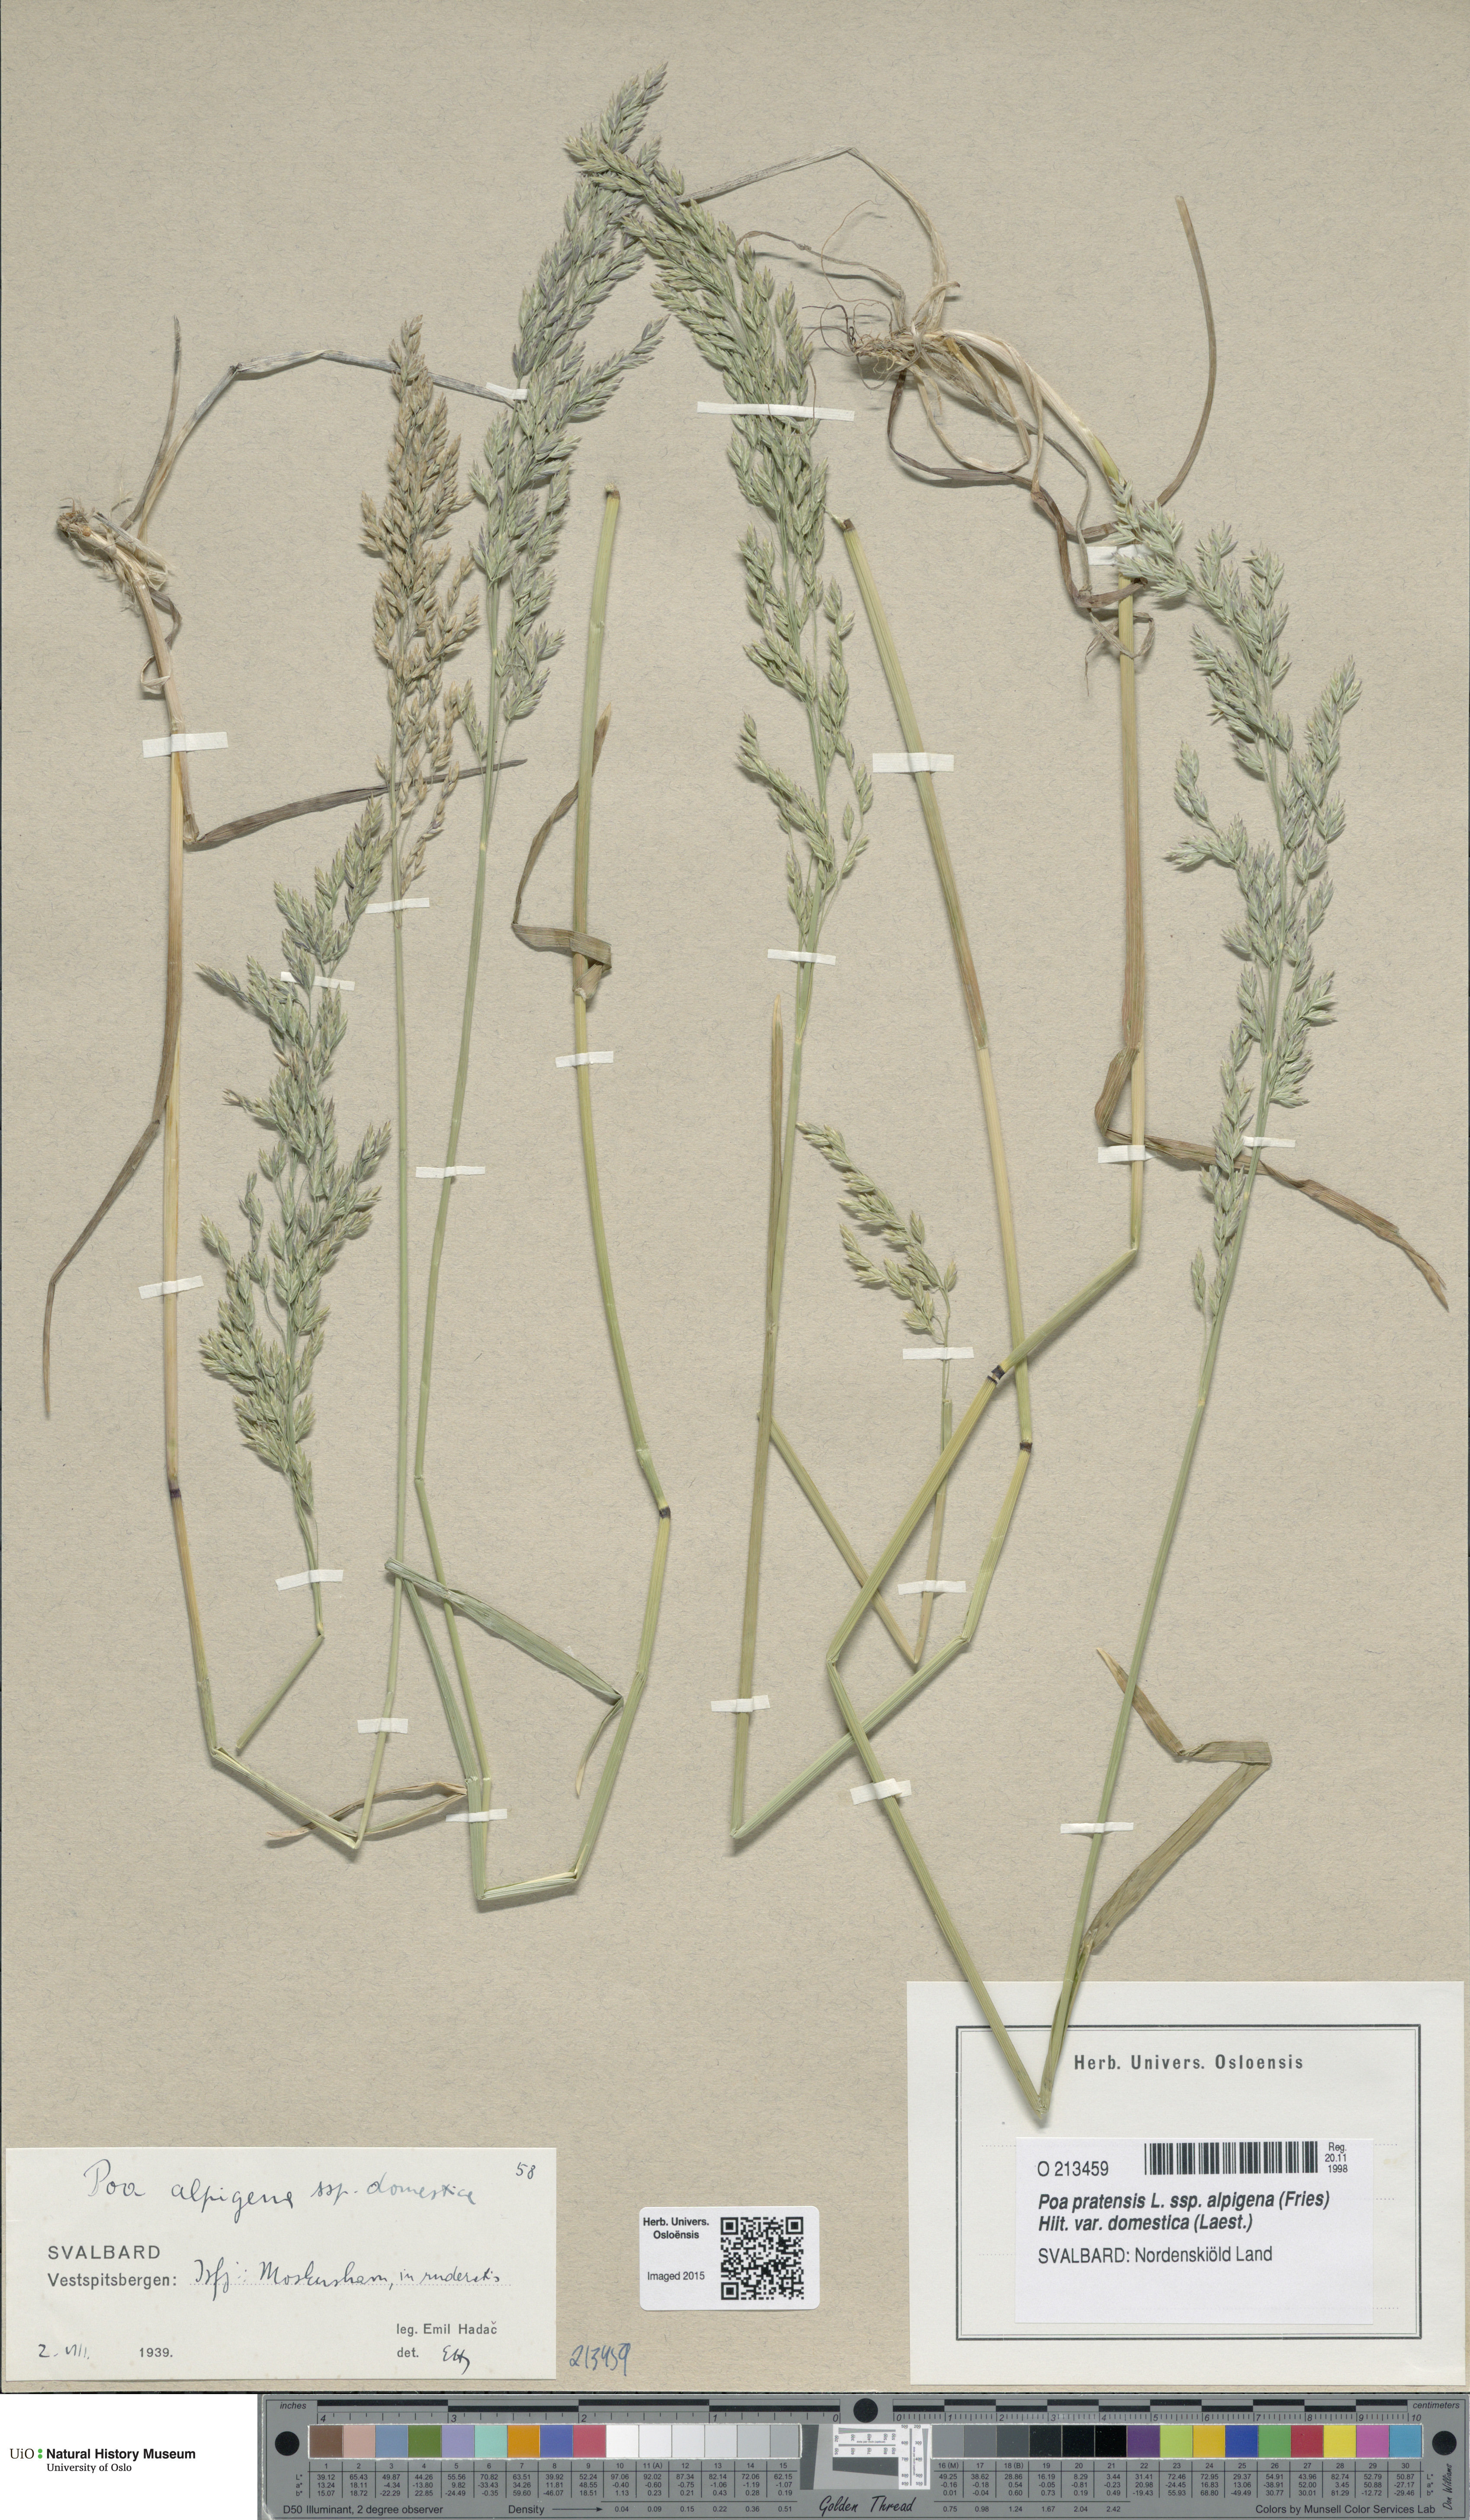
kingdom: Plantae
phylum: Tracheophyta
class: Liliopsida
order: Poales
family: Poaceae
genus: Poa
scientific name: Poa pratensis
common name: Kentucky bluegrass
